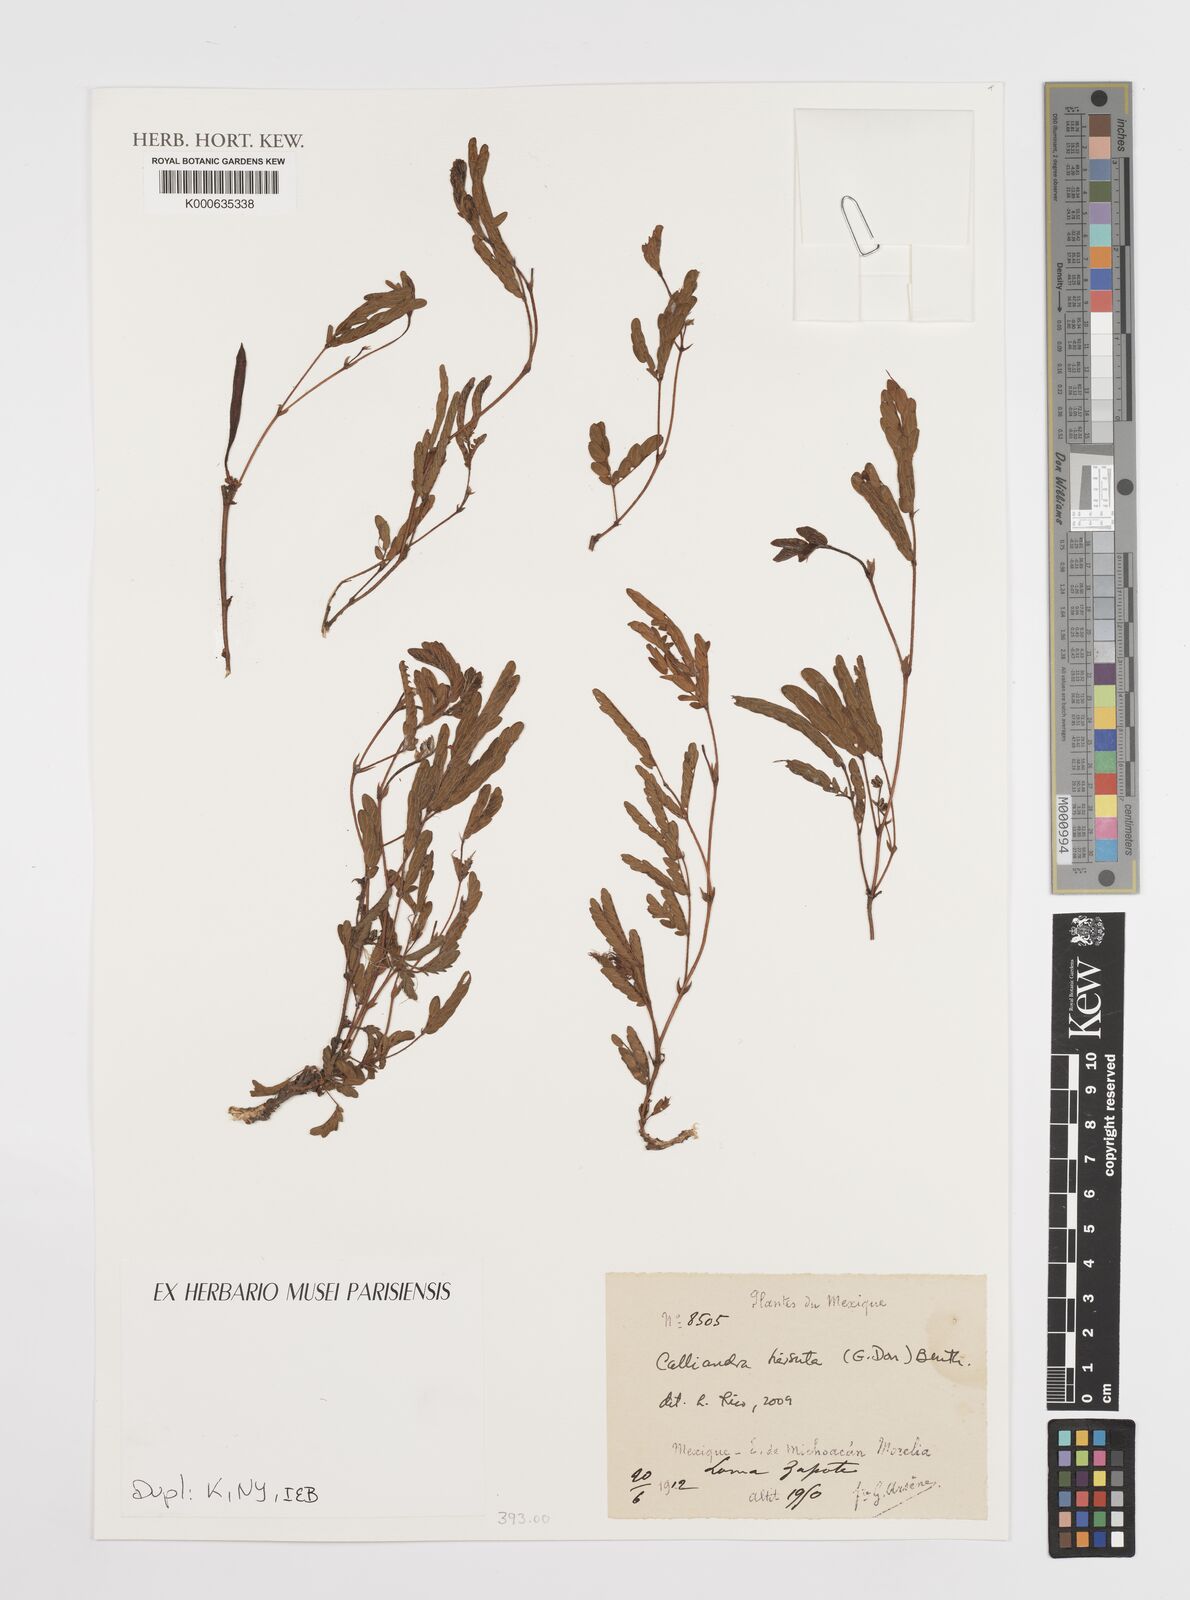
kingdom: Plantae
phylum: Tracheophyta
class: Magnoliopsida
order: Fabales
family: Fabaceae
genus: Calliandra
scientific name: Calliandra hirsuta
